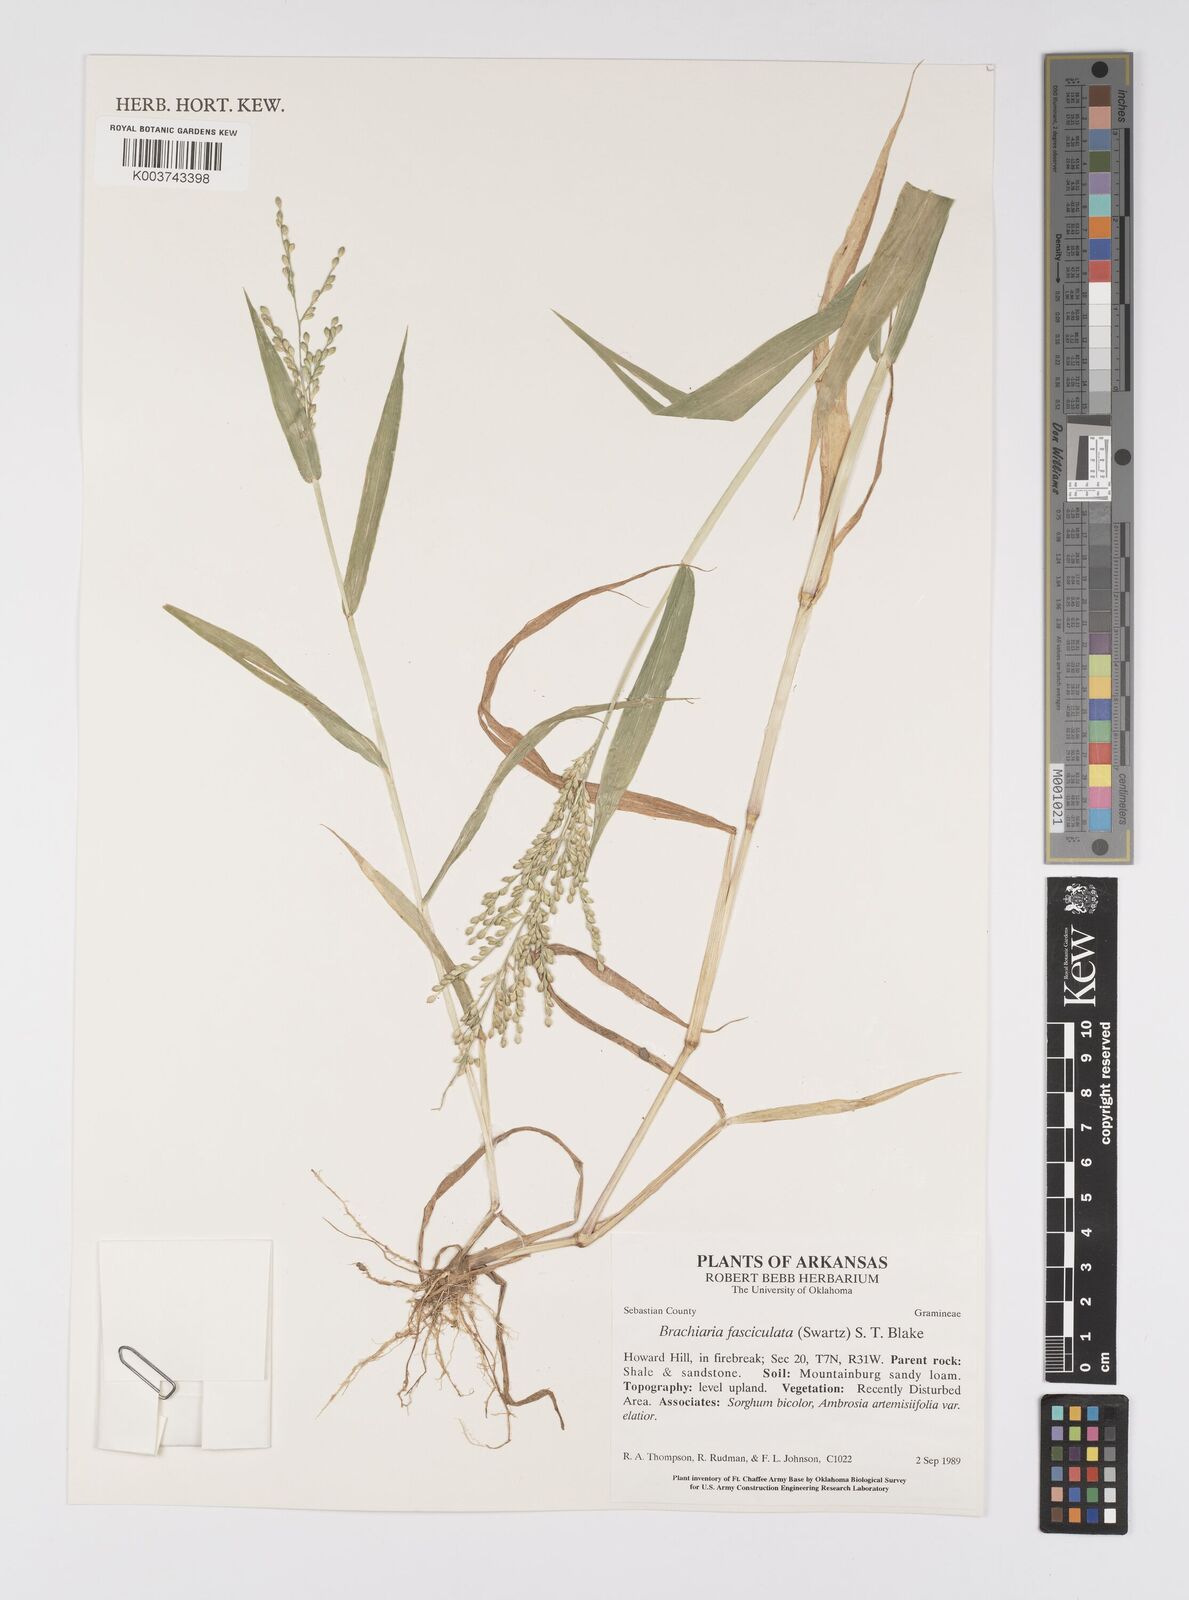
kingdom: Plantae
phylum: Tracheophyta
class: Liliopsida
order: Poales
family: Poaceae
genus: Urochloa
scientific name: Urochloa fusca
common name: Browntop signal grass
